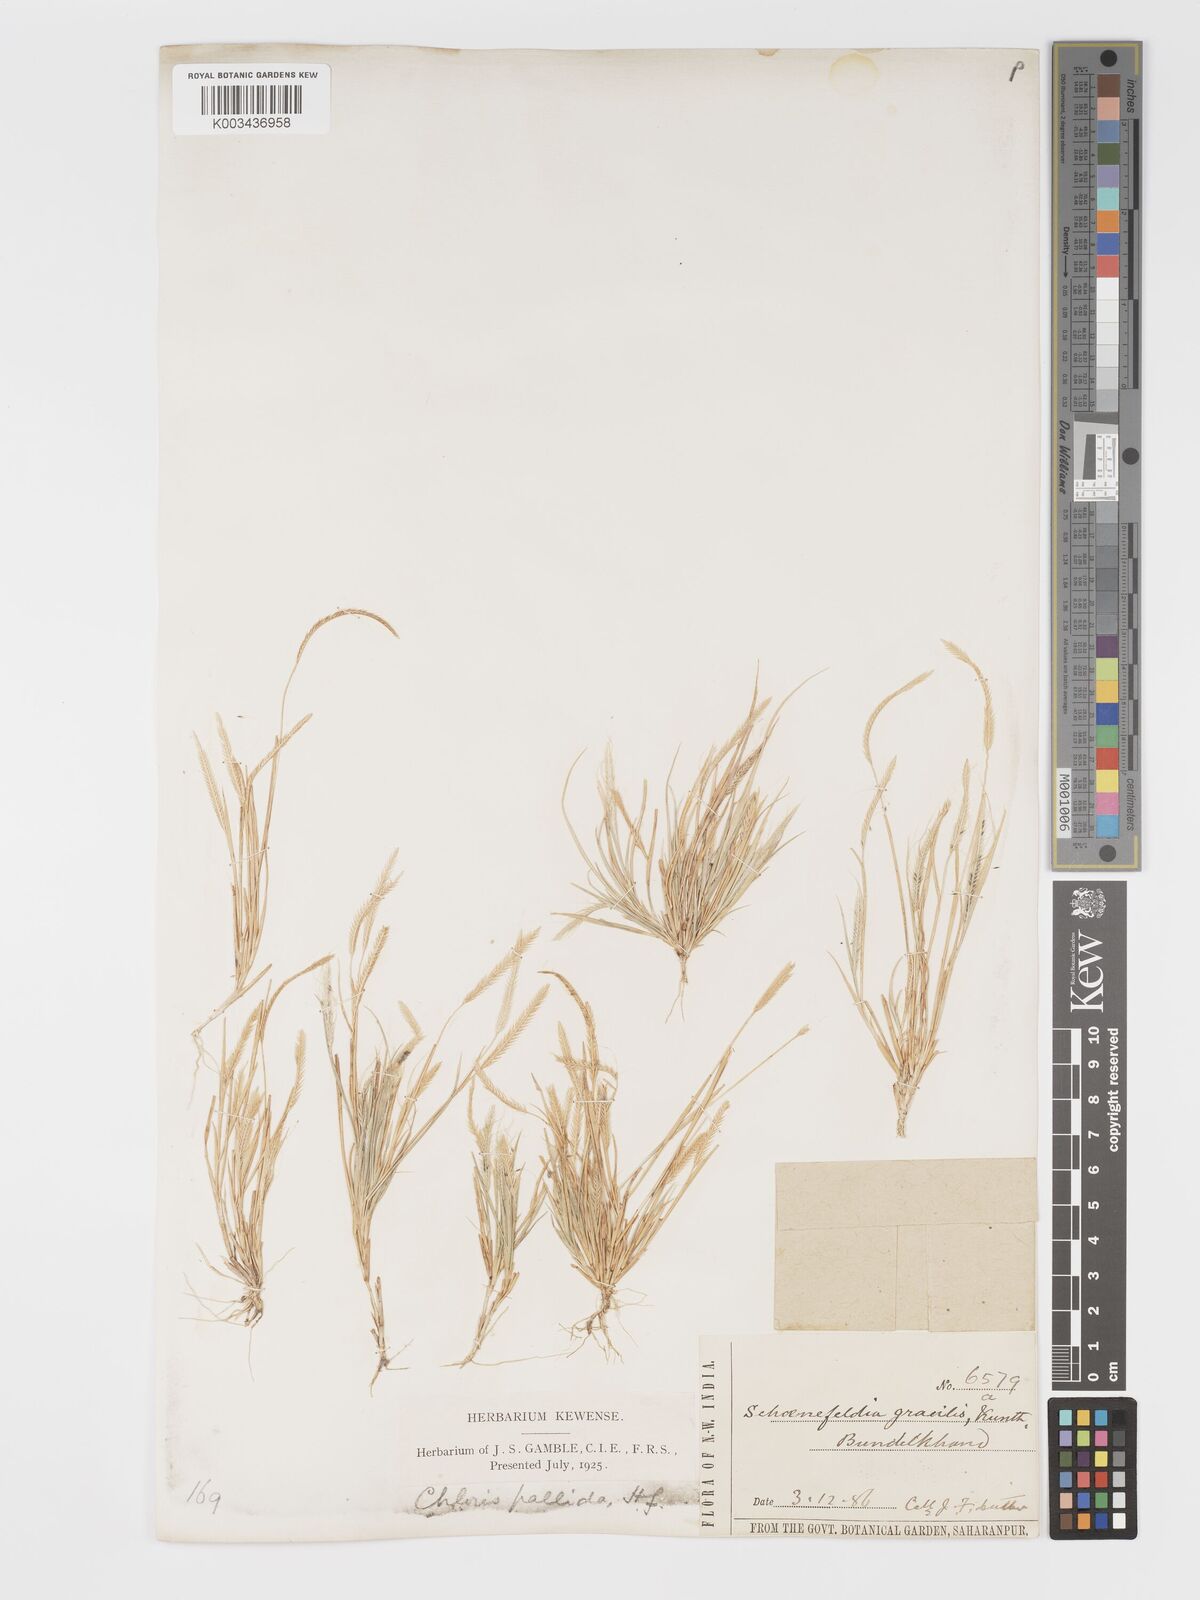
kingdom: Plantae
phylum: Tracheophyta
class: Liliopsida
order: Poales
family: Poaceae
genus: Schoenefeldia
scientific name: Schoenefeldia gracilis
